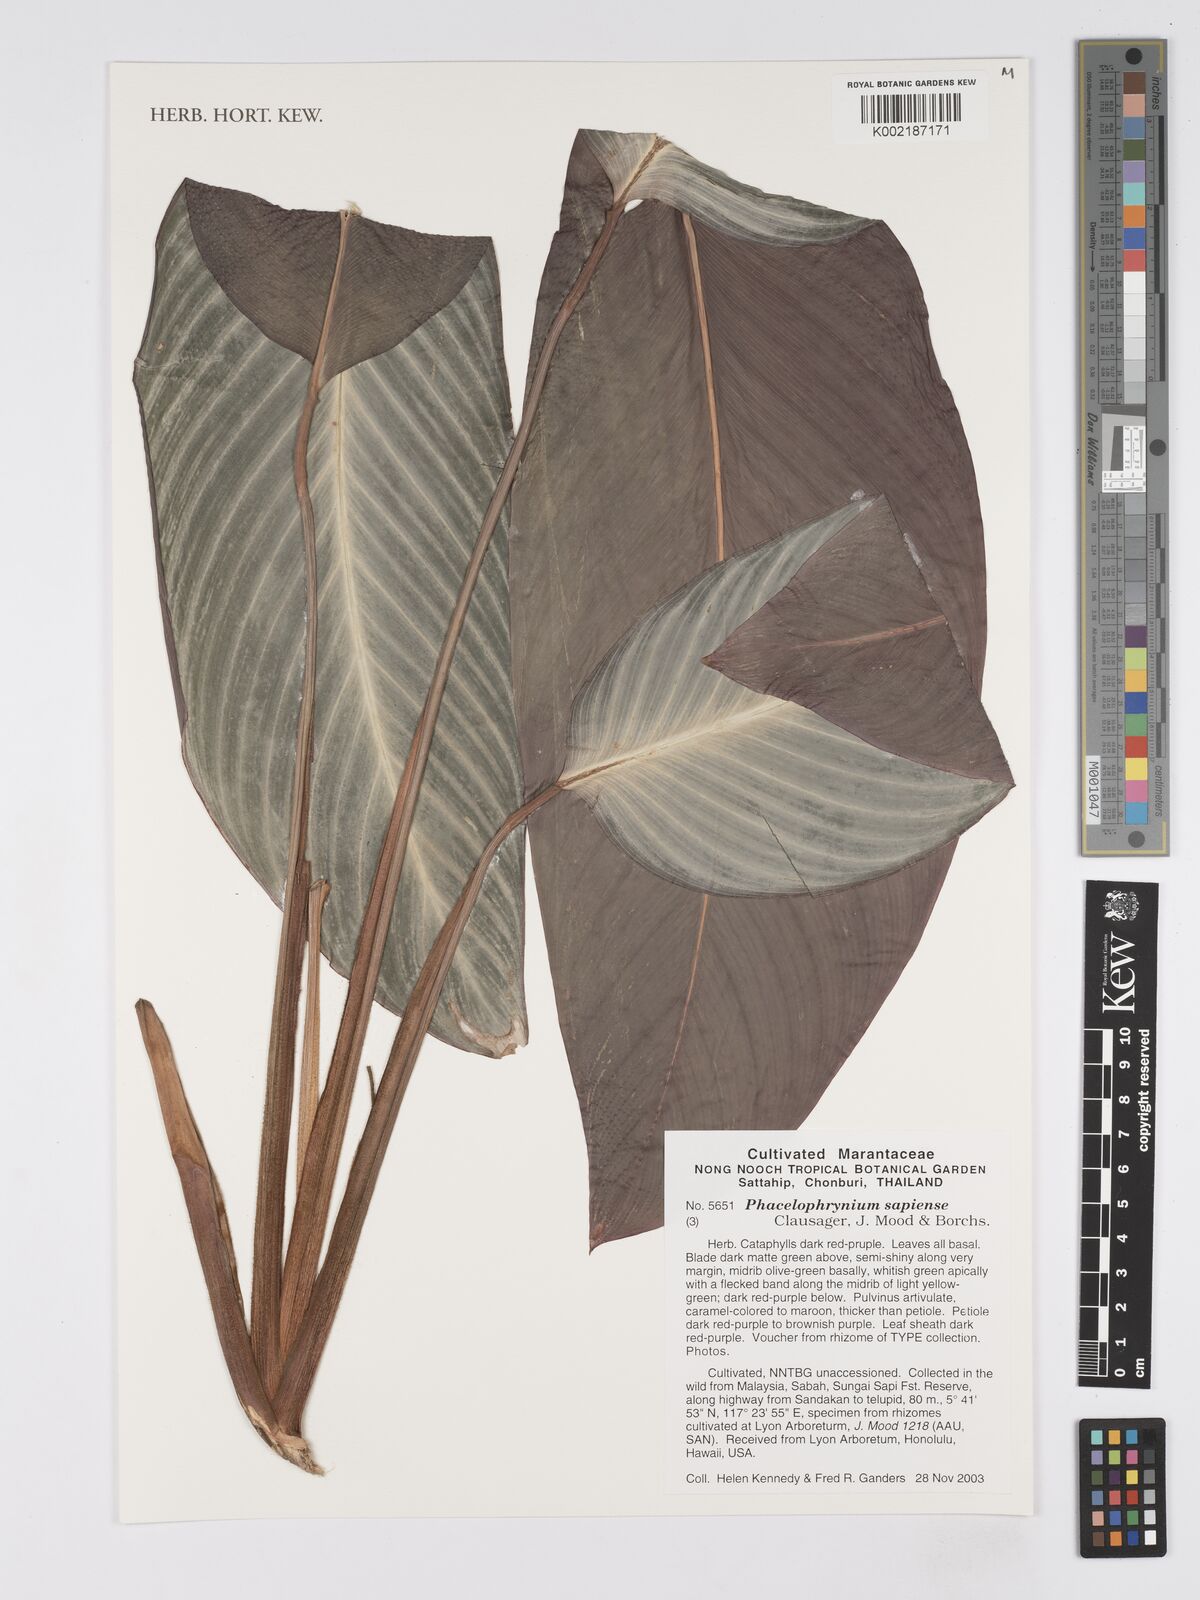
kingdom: Plantae
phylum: Tracheophyta
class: Liliopsida
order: Zingiberales
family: Marantaceae
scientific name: Marantaceae
